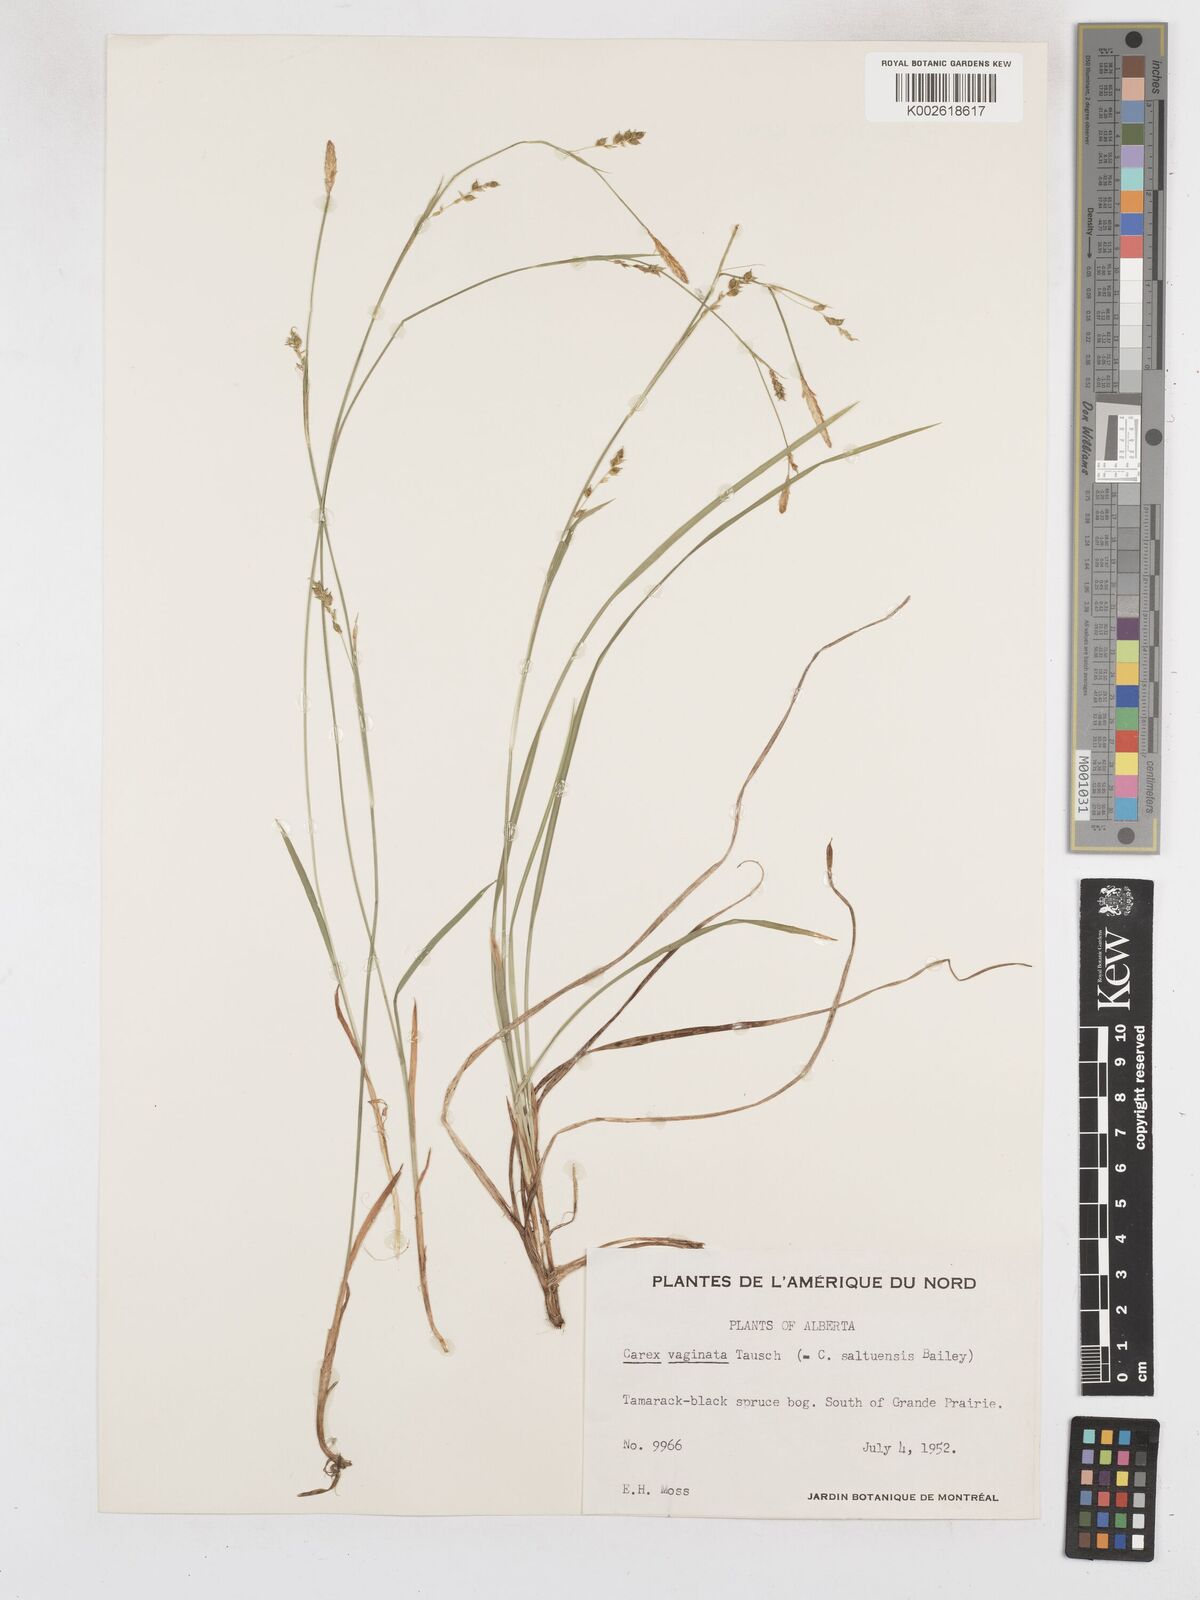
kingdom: Plantae
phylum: Tracheophyta
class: Liliopsida
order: Poales
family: Cyperaceae
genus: Carex
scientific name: Carex vaginata
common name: Sheathed sedge
